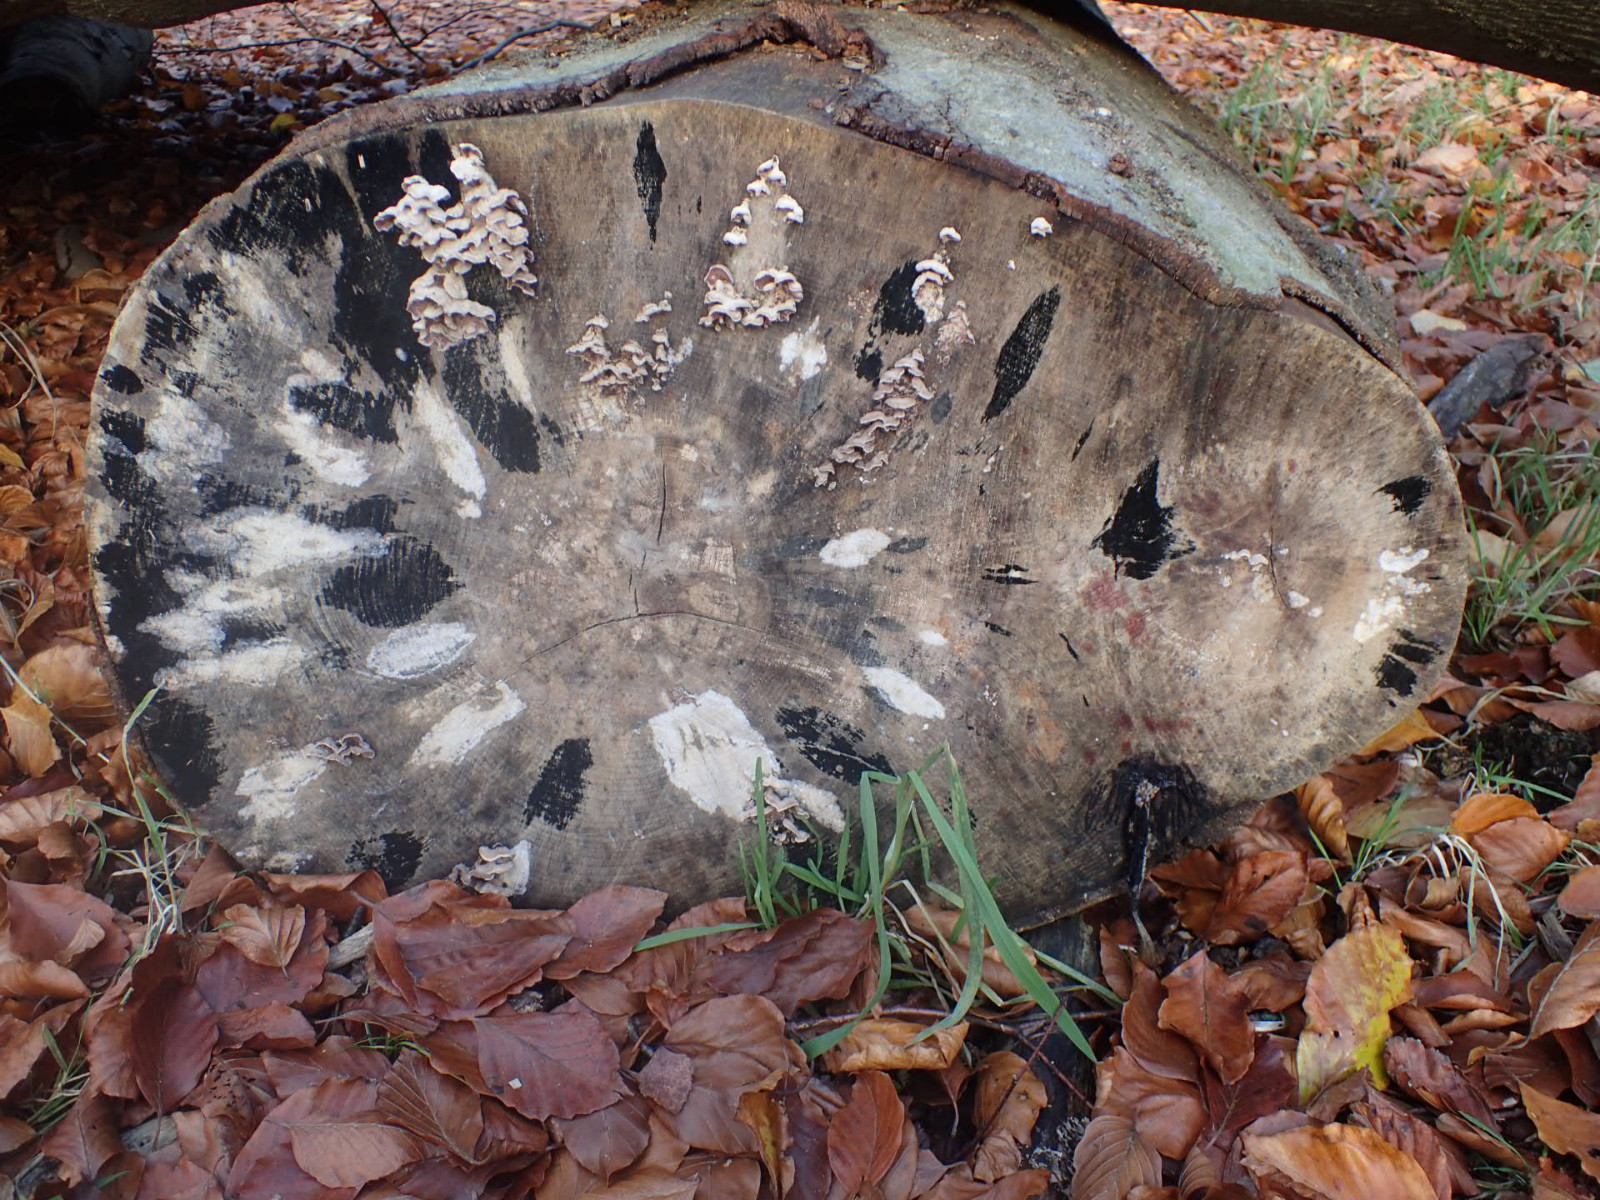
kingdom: Fungi
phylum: Ascomycota
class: Leotiomycetes
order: Helotiales
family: Helotiaceae
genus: Bispora
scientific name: Bispora pallescens
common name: måtte-snitskive
